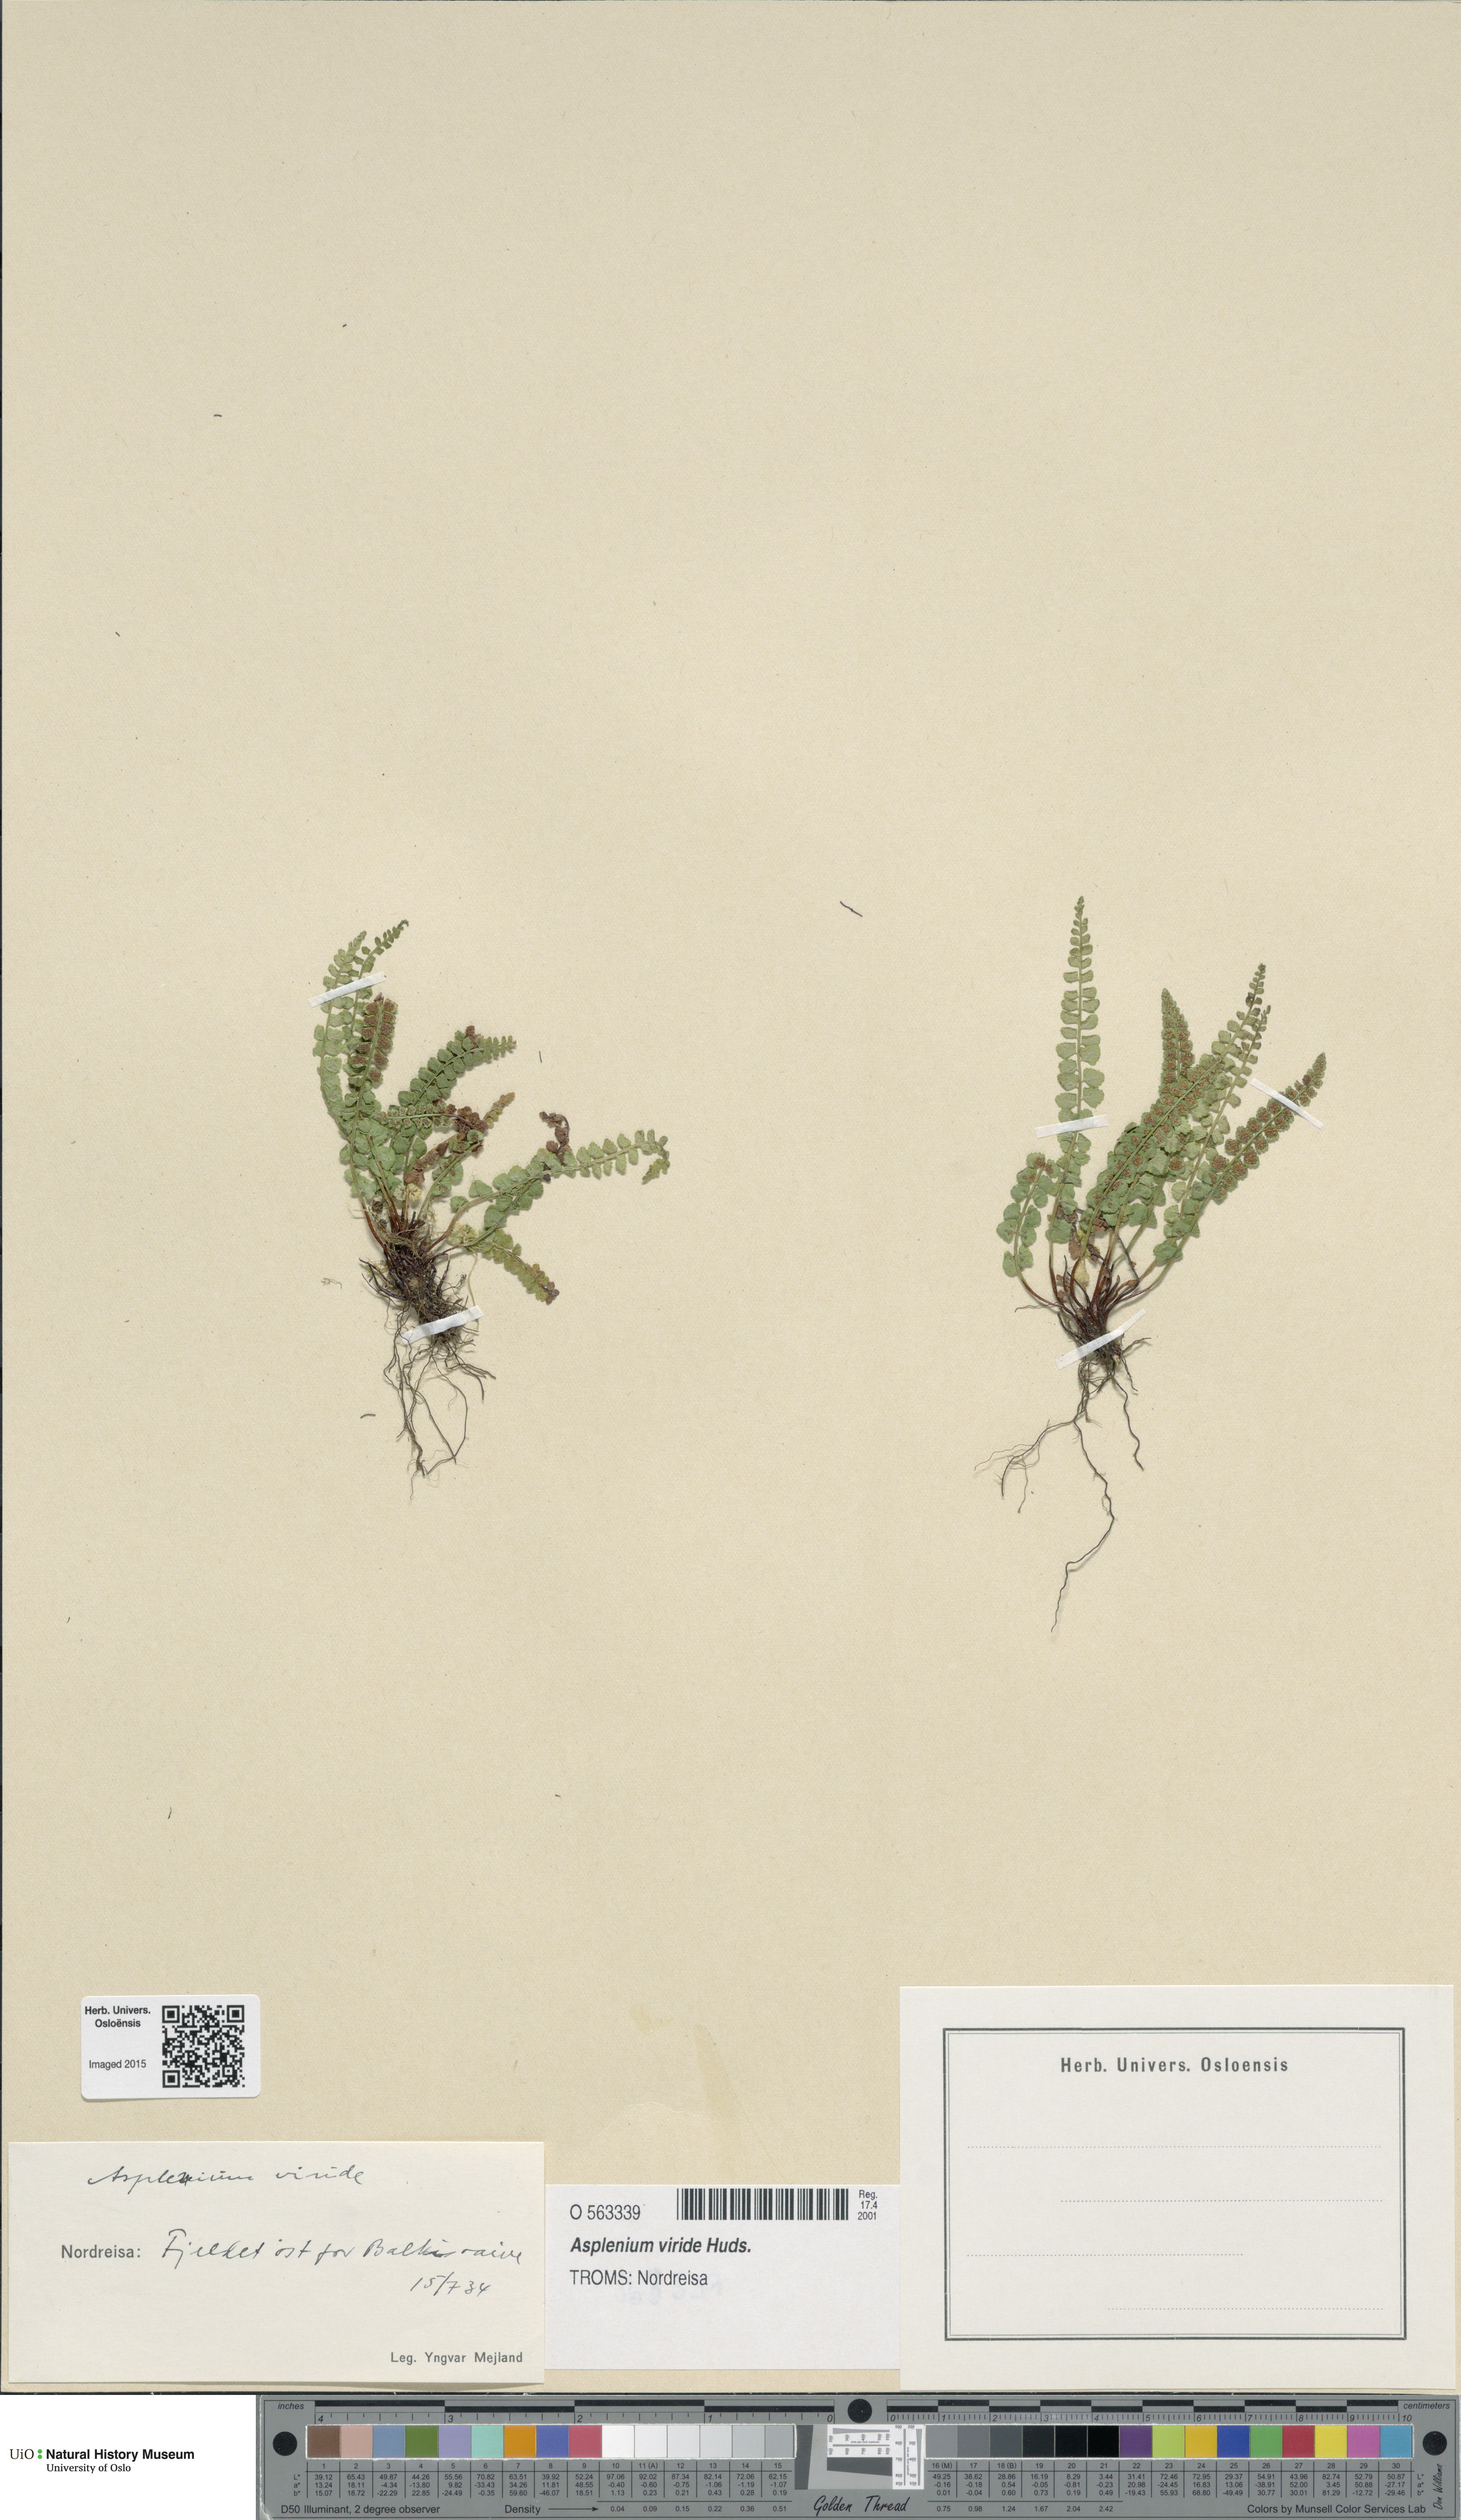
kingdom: Plantae
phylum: Tracheophyta
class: Polypodiopsida
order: Polypodiales
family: Aspleniaceae
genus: Asplenium
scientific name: Asplenium viride
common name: Green spleenwort
